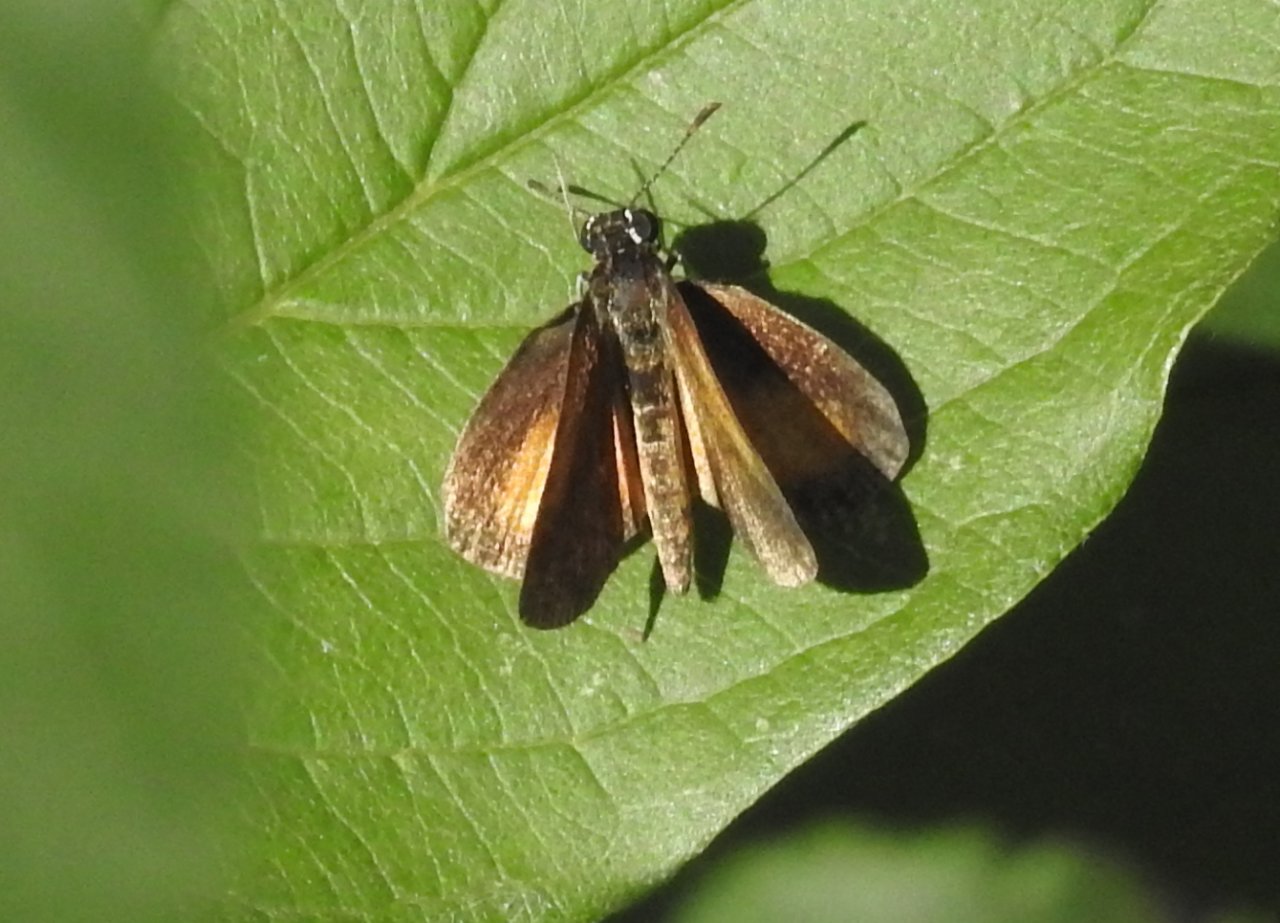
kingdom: Animalia
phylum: Arthropoda
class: Insecta
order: Lepidoptera
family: Hesperiidae
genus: Ancyloxypha
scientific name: Ancyloxypha numitor
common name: Least Skipper
